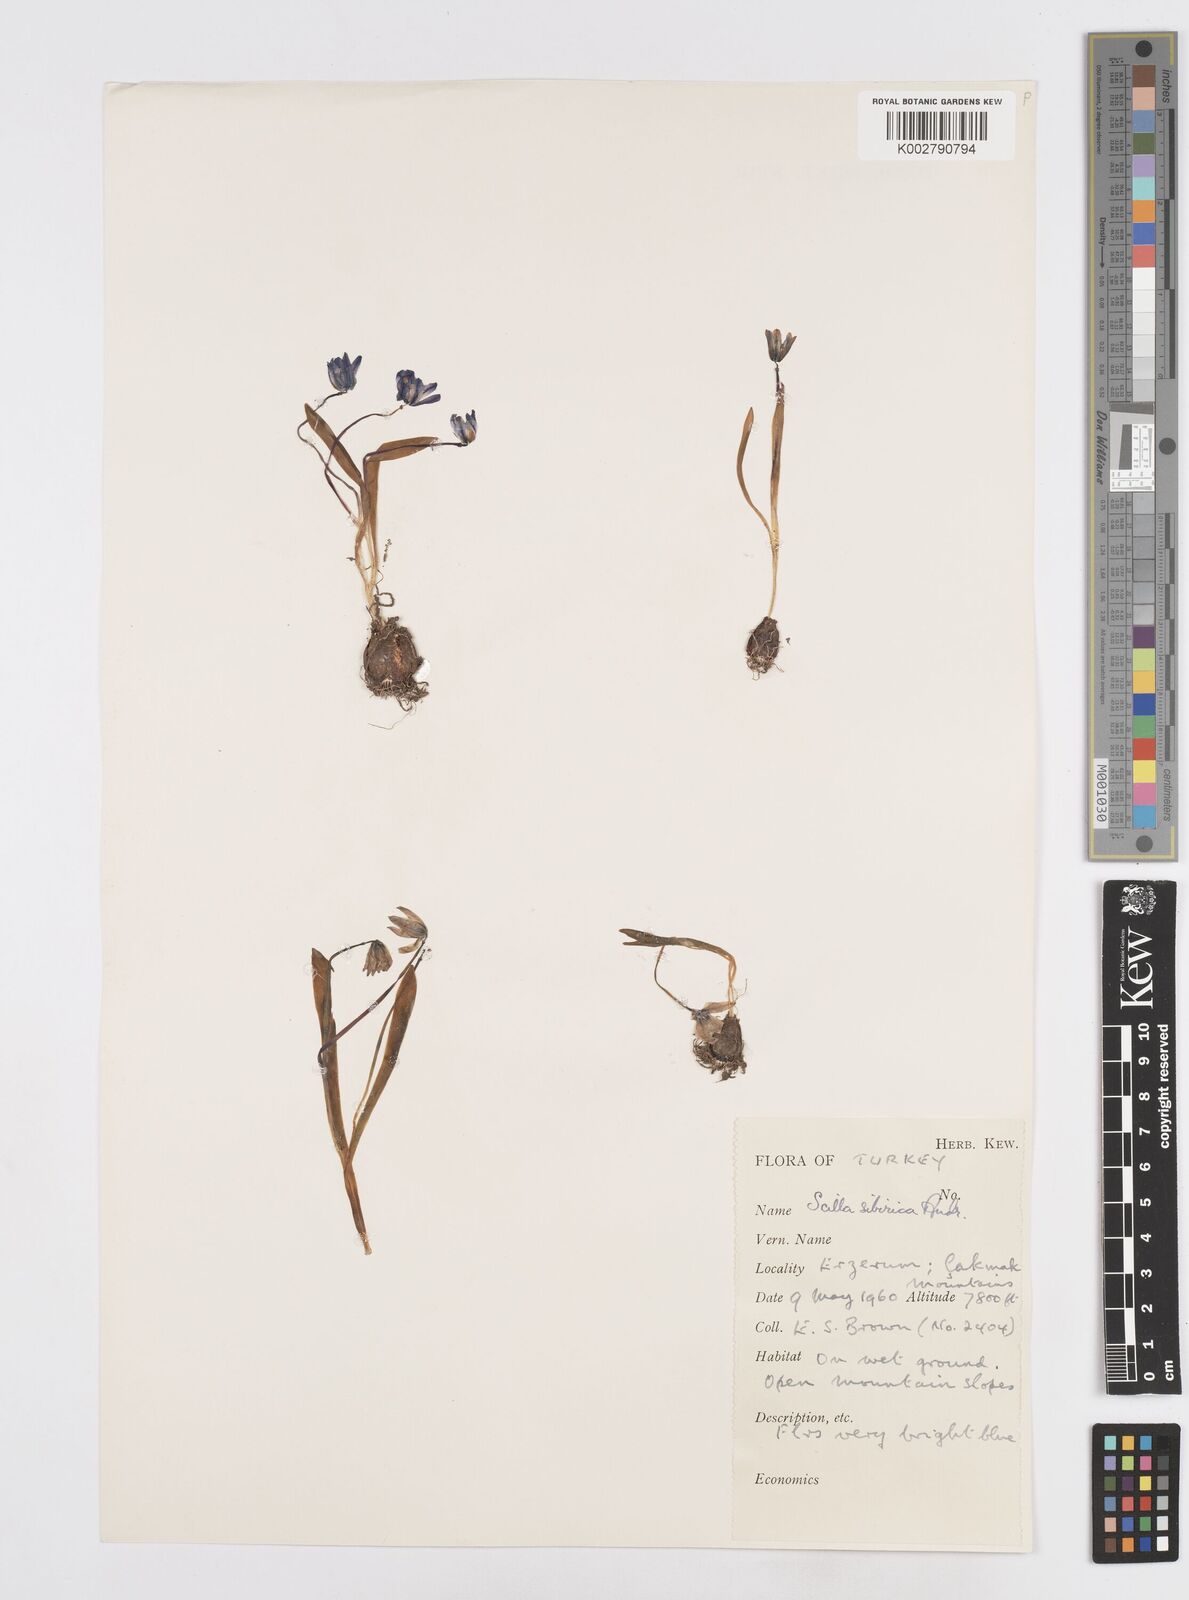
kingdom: Plantae
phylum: Tracheophyta
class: Liliopsida
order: Asparagales
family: Asparagaceae
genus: Scilla
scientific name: Scilla siberica
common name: Siberian squill
